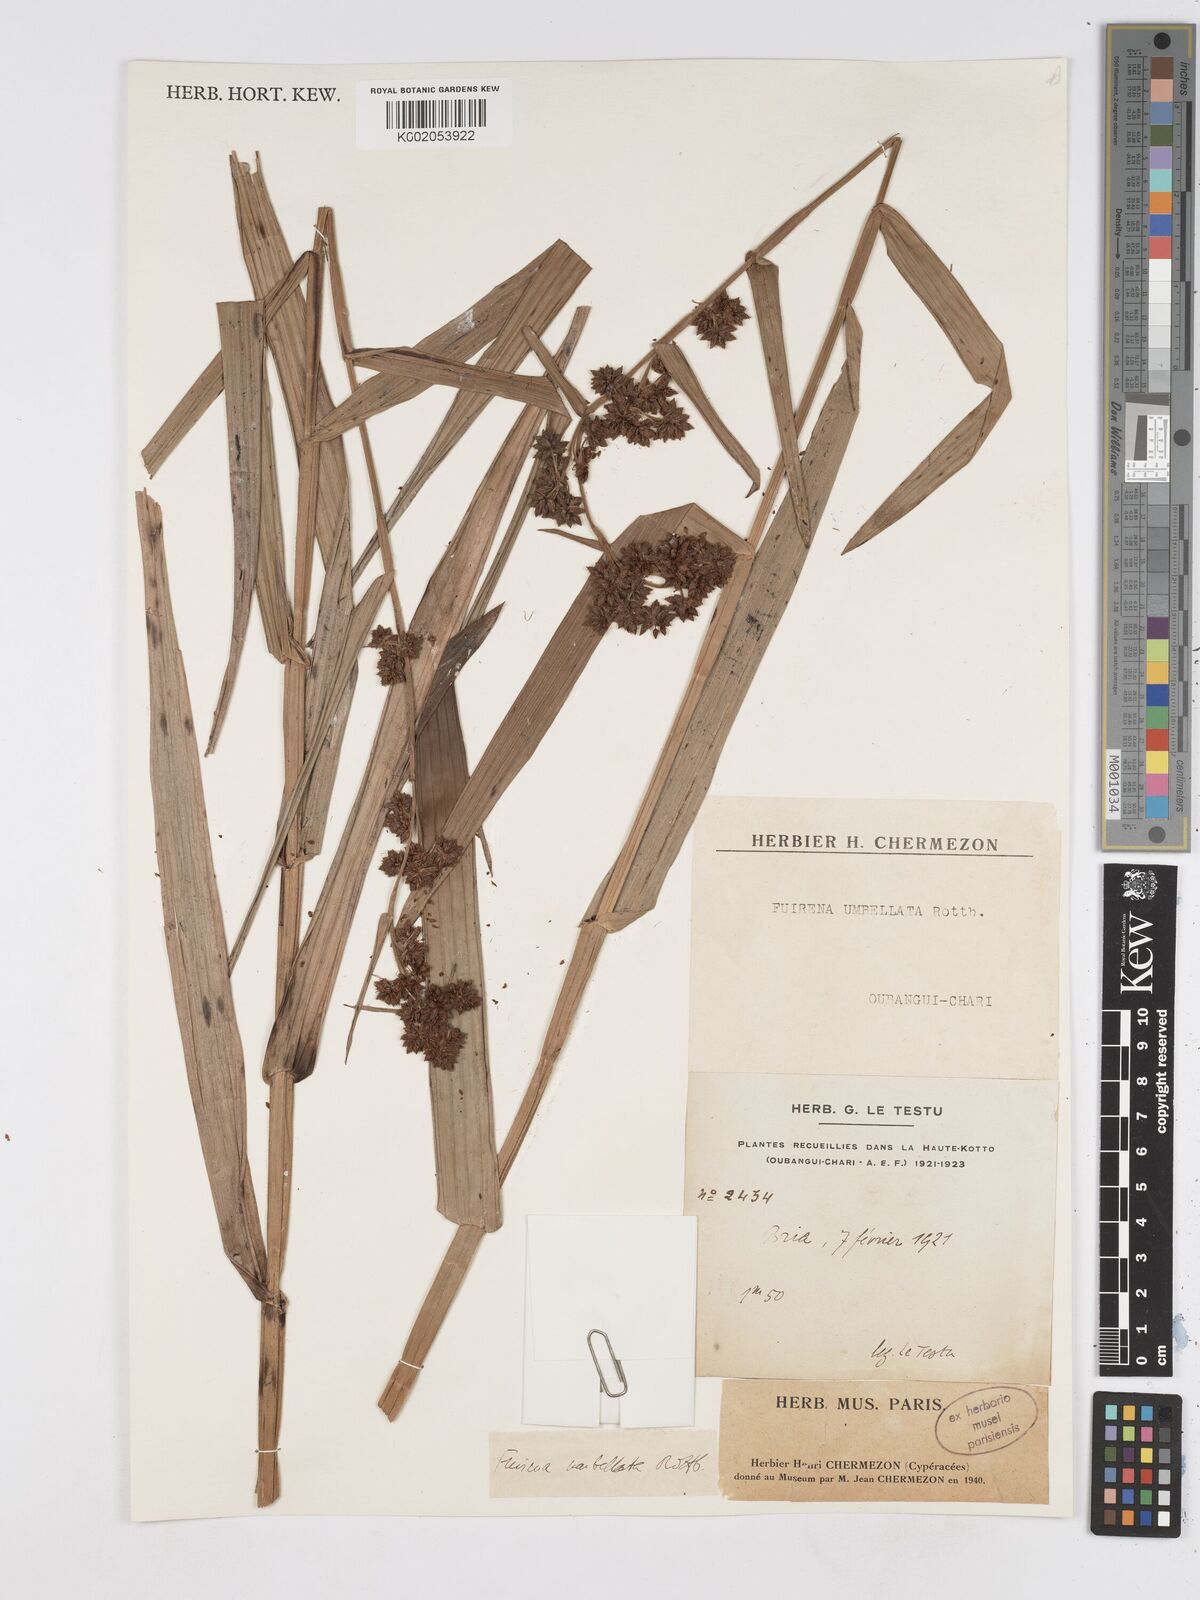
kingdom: Plantae
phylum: Tracheophyta
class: Liliopsida
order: Poales
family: Cyperaceae
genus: Fuirena
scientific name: Fuirena umbellata
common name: Yefen
